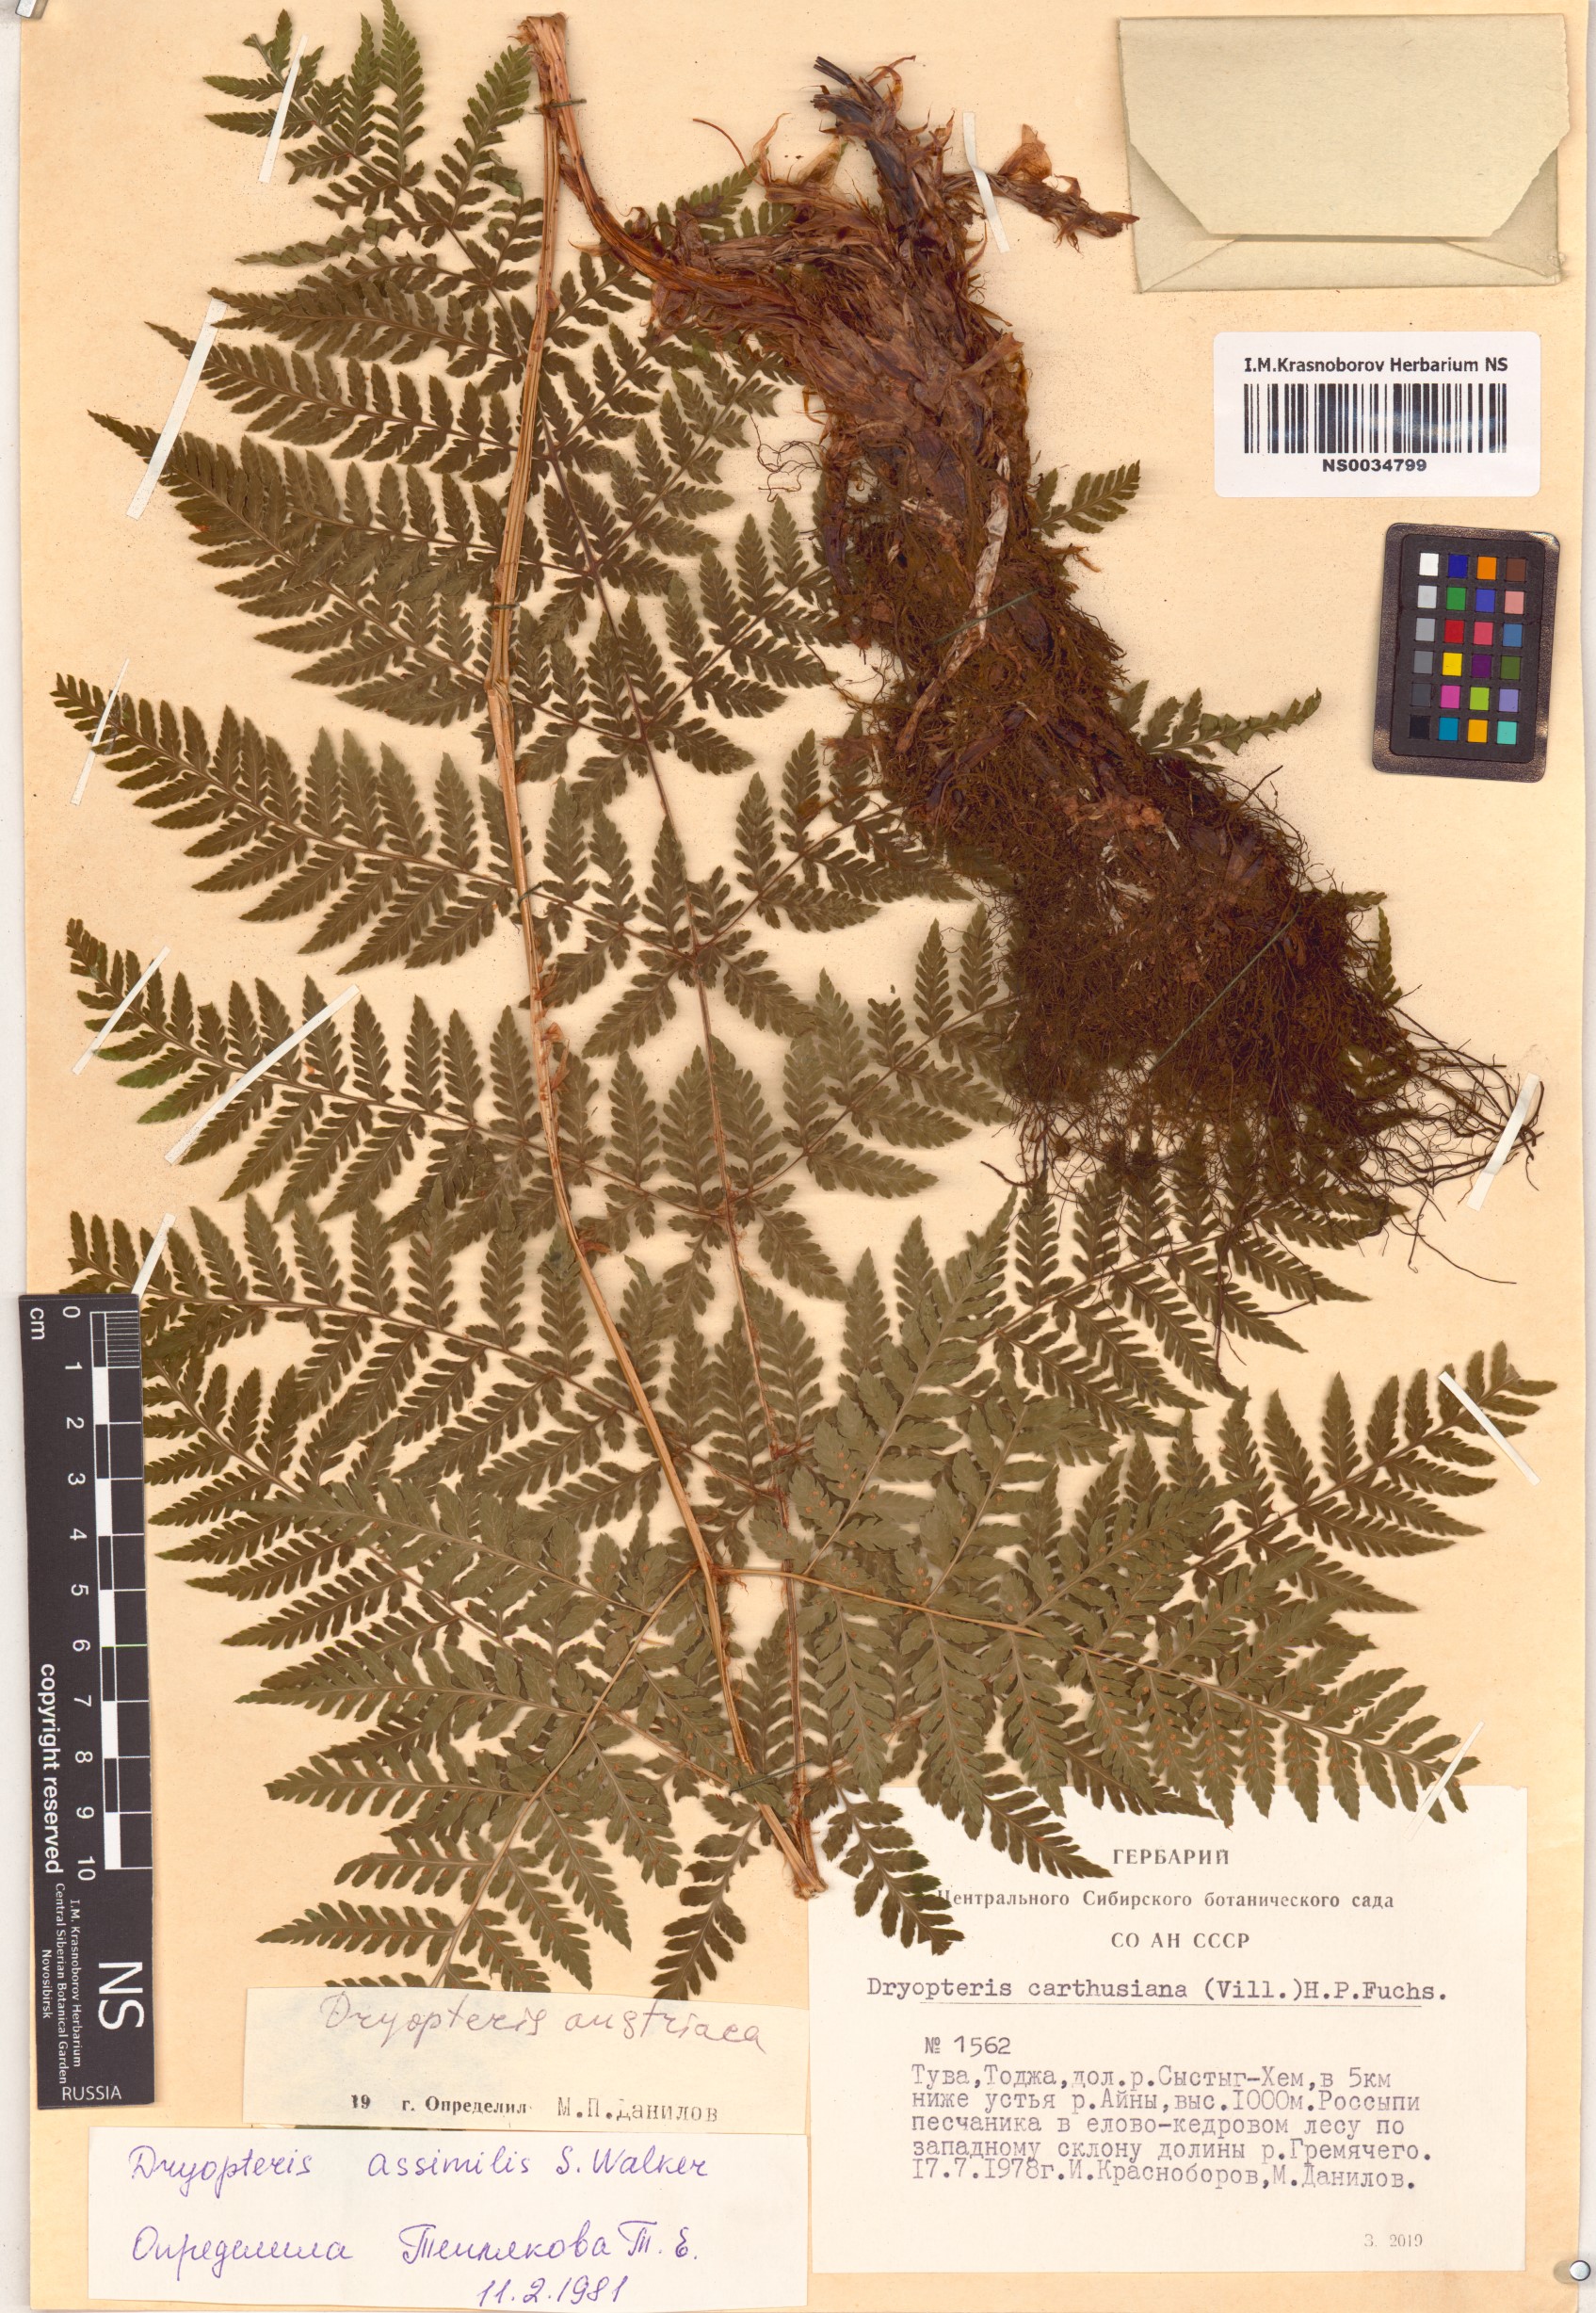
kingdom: Plantae
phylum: Tracheophyta
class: Polypodiopsida
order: Polypodiales
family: Dryopteridaceae
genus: Dryopteris
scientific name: Dryopteris expansa
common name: Northern buckler fern
